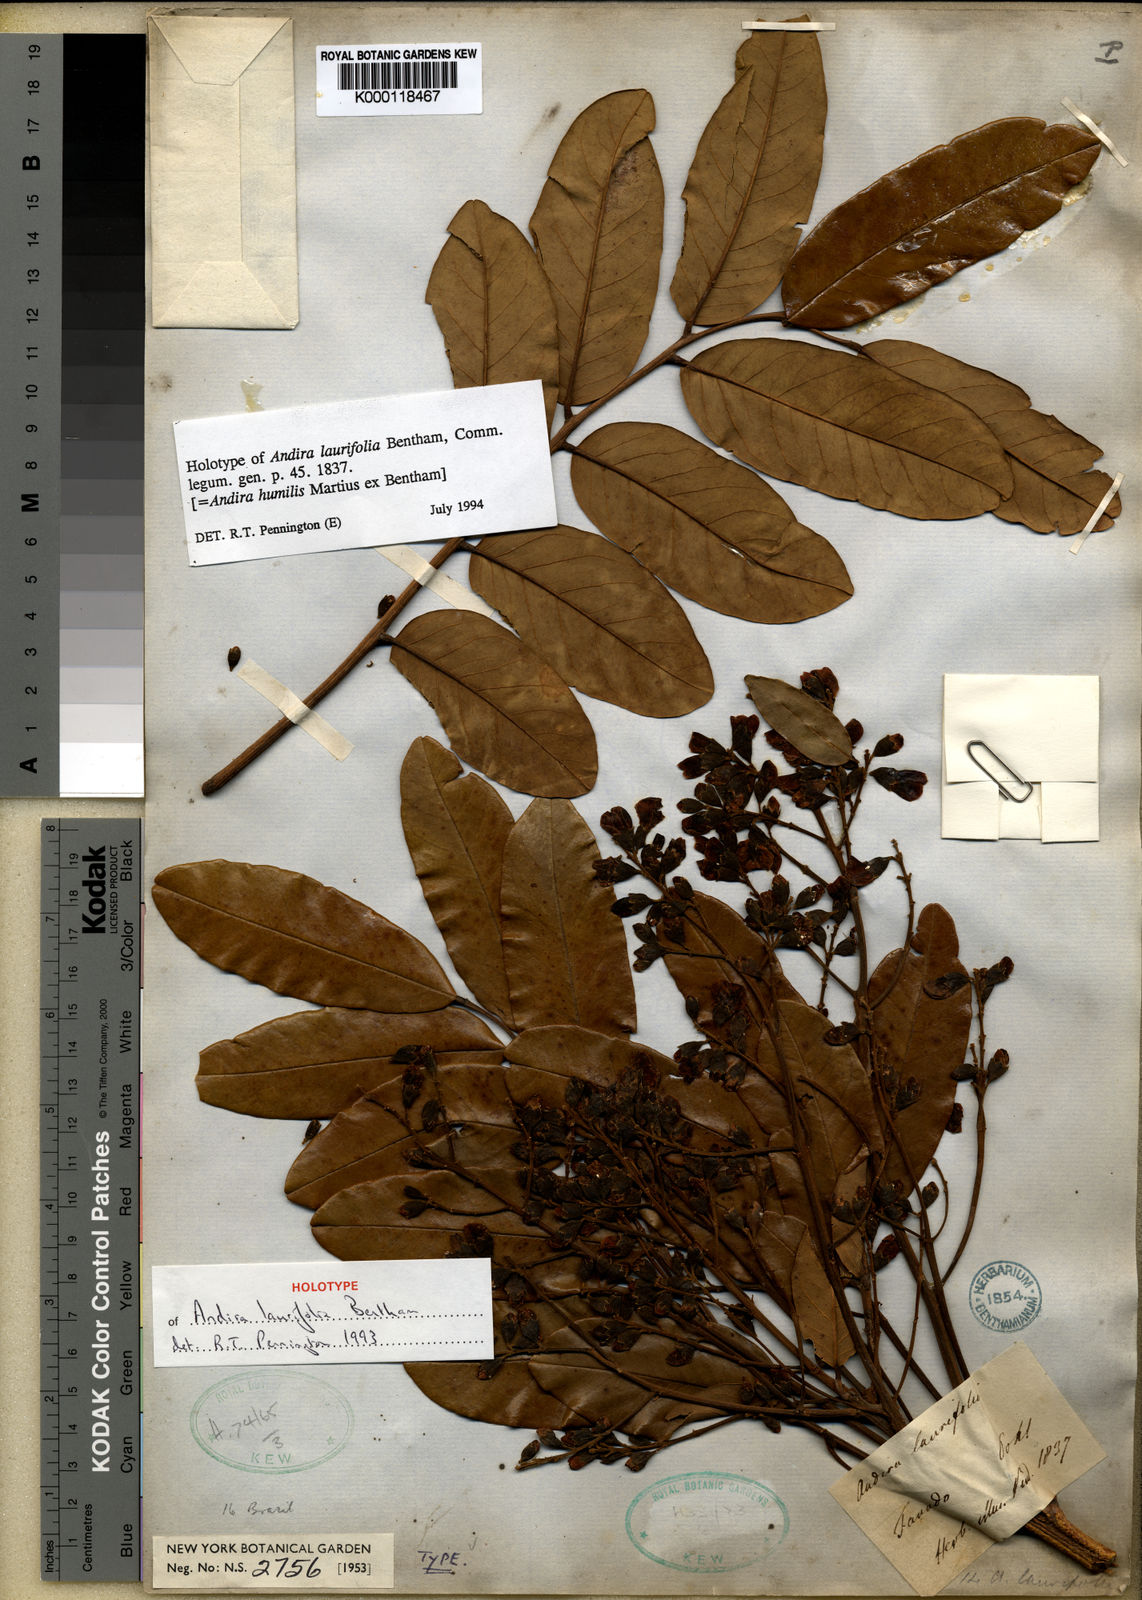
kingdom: Plantae
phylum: Tracheophyta
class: Magnoliopsida
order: Fabales
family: Fabaceae
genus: Andira
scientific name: Andira humilis
